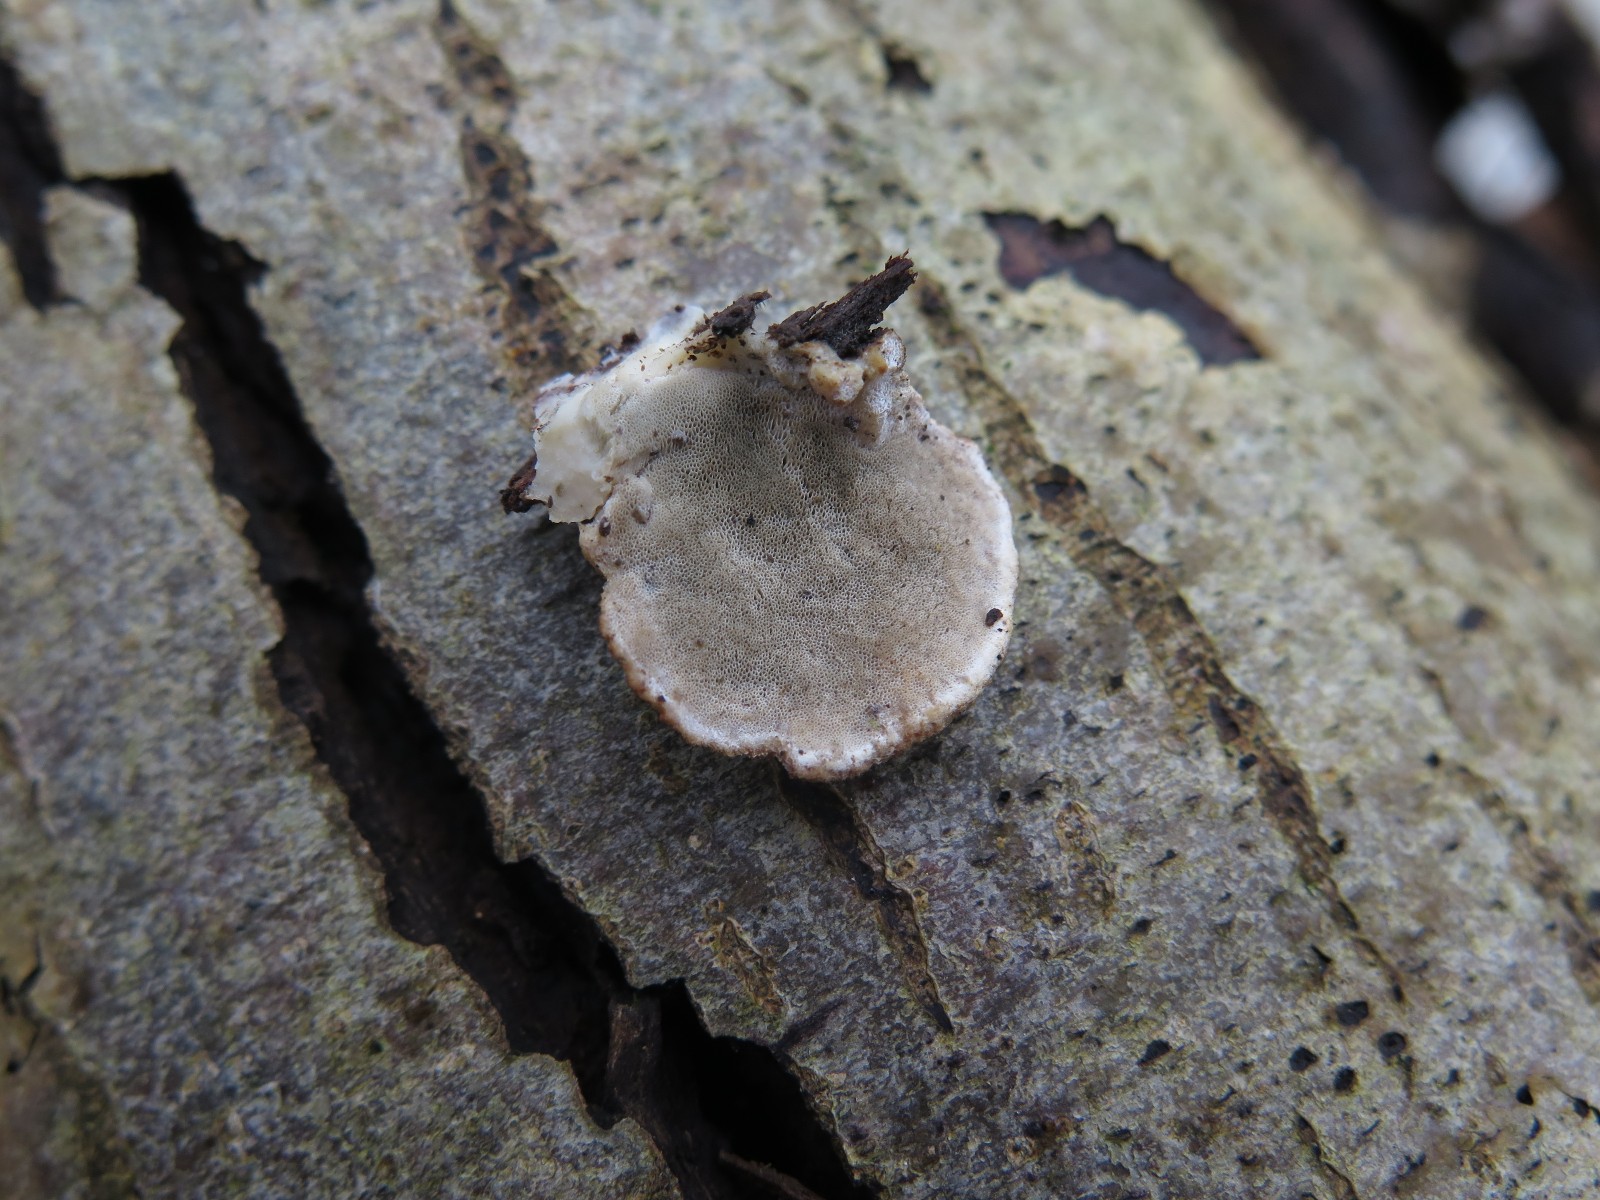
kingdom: Fungi
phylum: Basidiomycota
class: Agaricomycetes
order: Polyporales
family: Phanerochaetaceae
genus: Bjerkandera
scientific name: Bjerkandera fumosa
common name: grågul sodporesvamp
